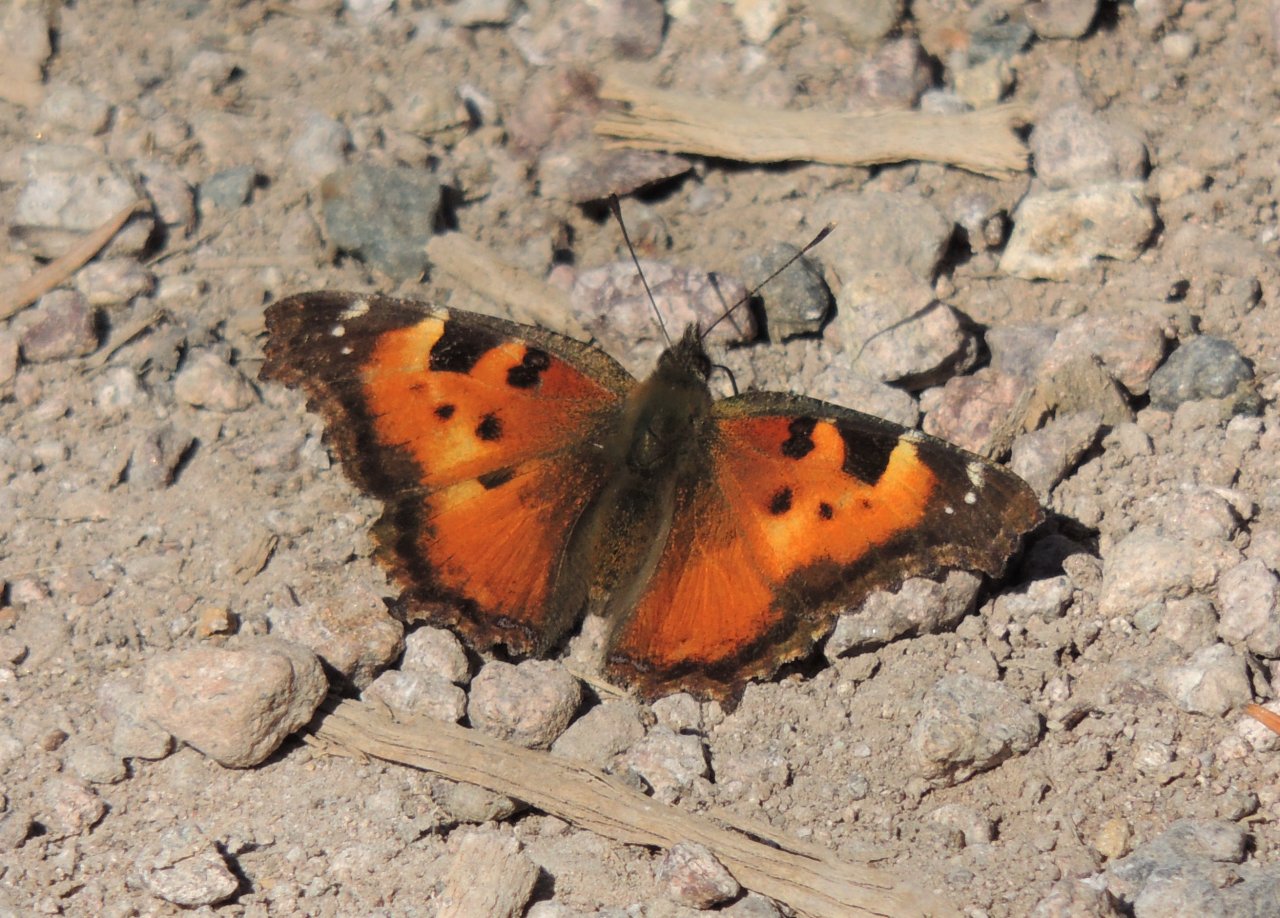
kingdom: Animalia
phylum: Arthropoda
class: Insecta
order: Lepidoptera
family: Nymphalidae
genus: Nymphalis
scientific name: Nymphalis californica
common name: California Tortoiseshell
